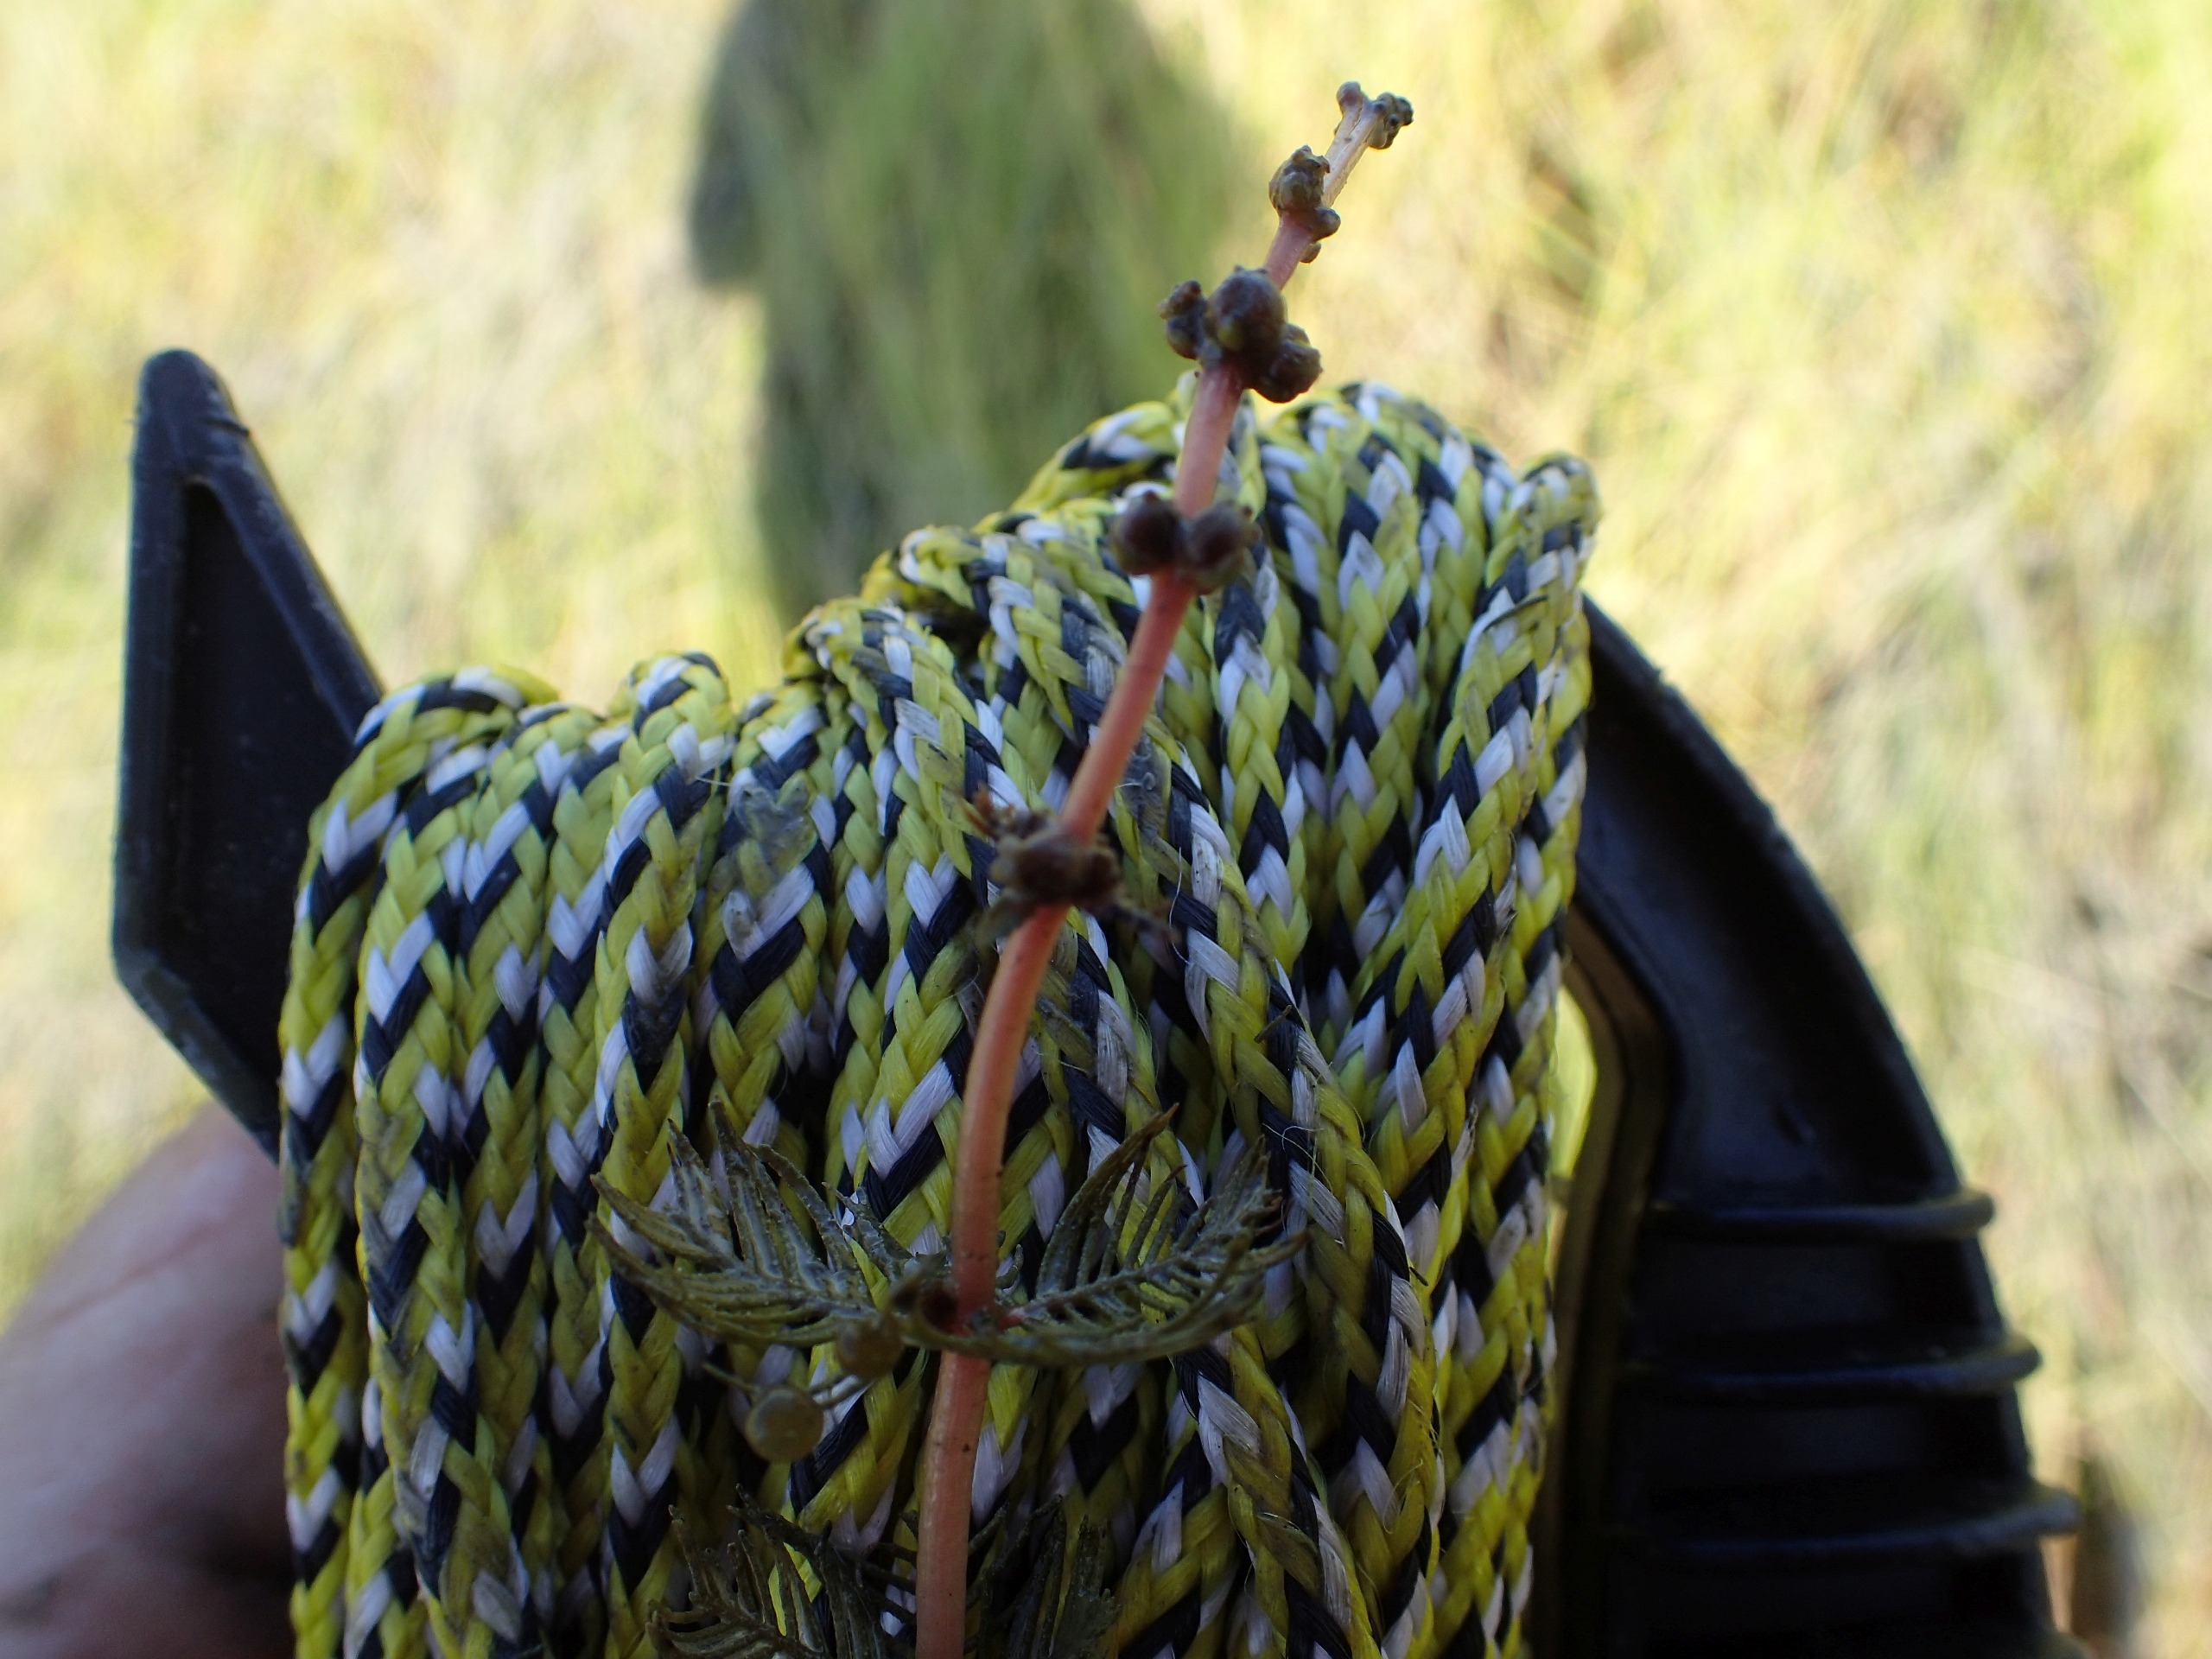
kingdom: Plantae
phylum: Tracheophyta
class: Magnoliopsida
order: Saxifragales
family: Haloragaceae
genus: Myriophyllum
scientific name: Myriophyllum spicatum
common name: Aks-tusindblad
